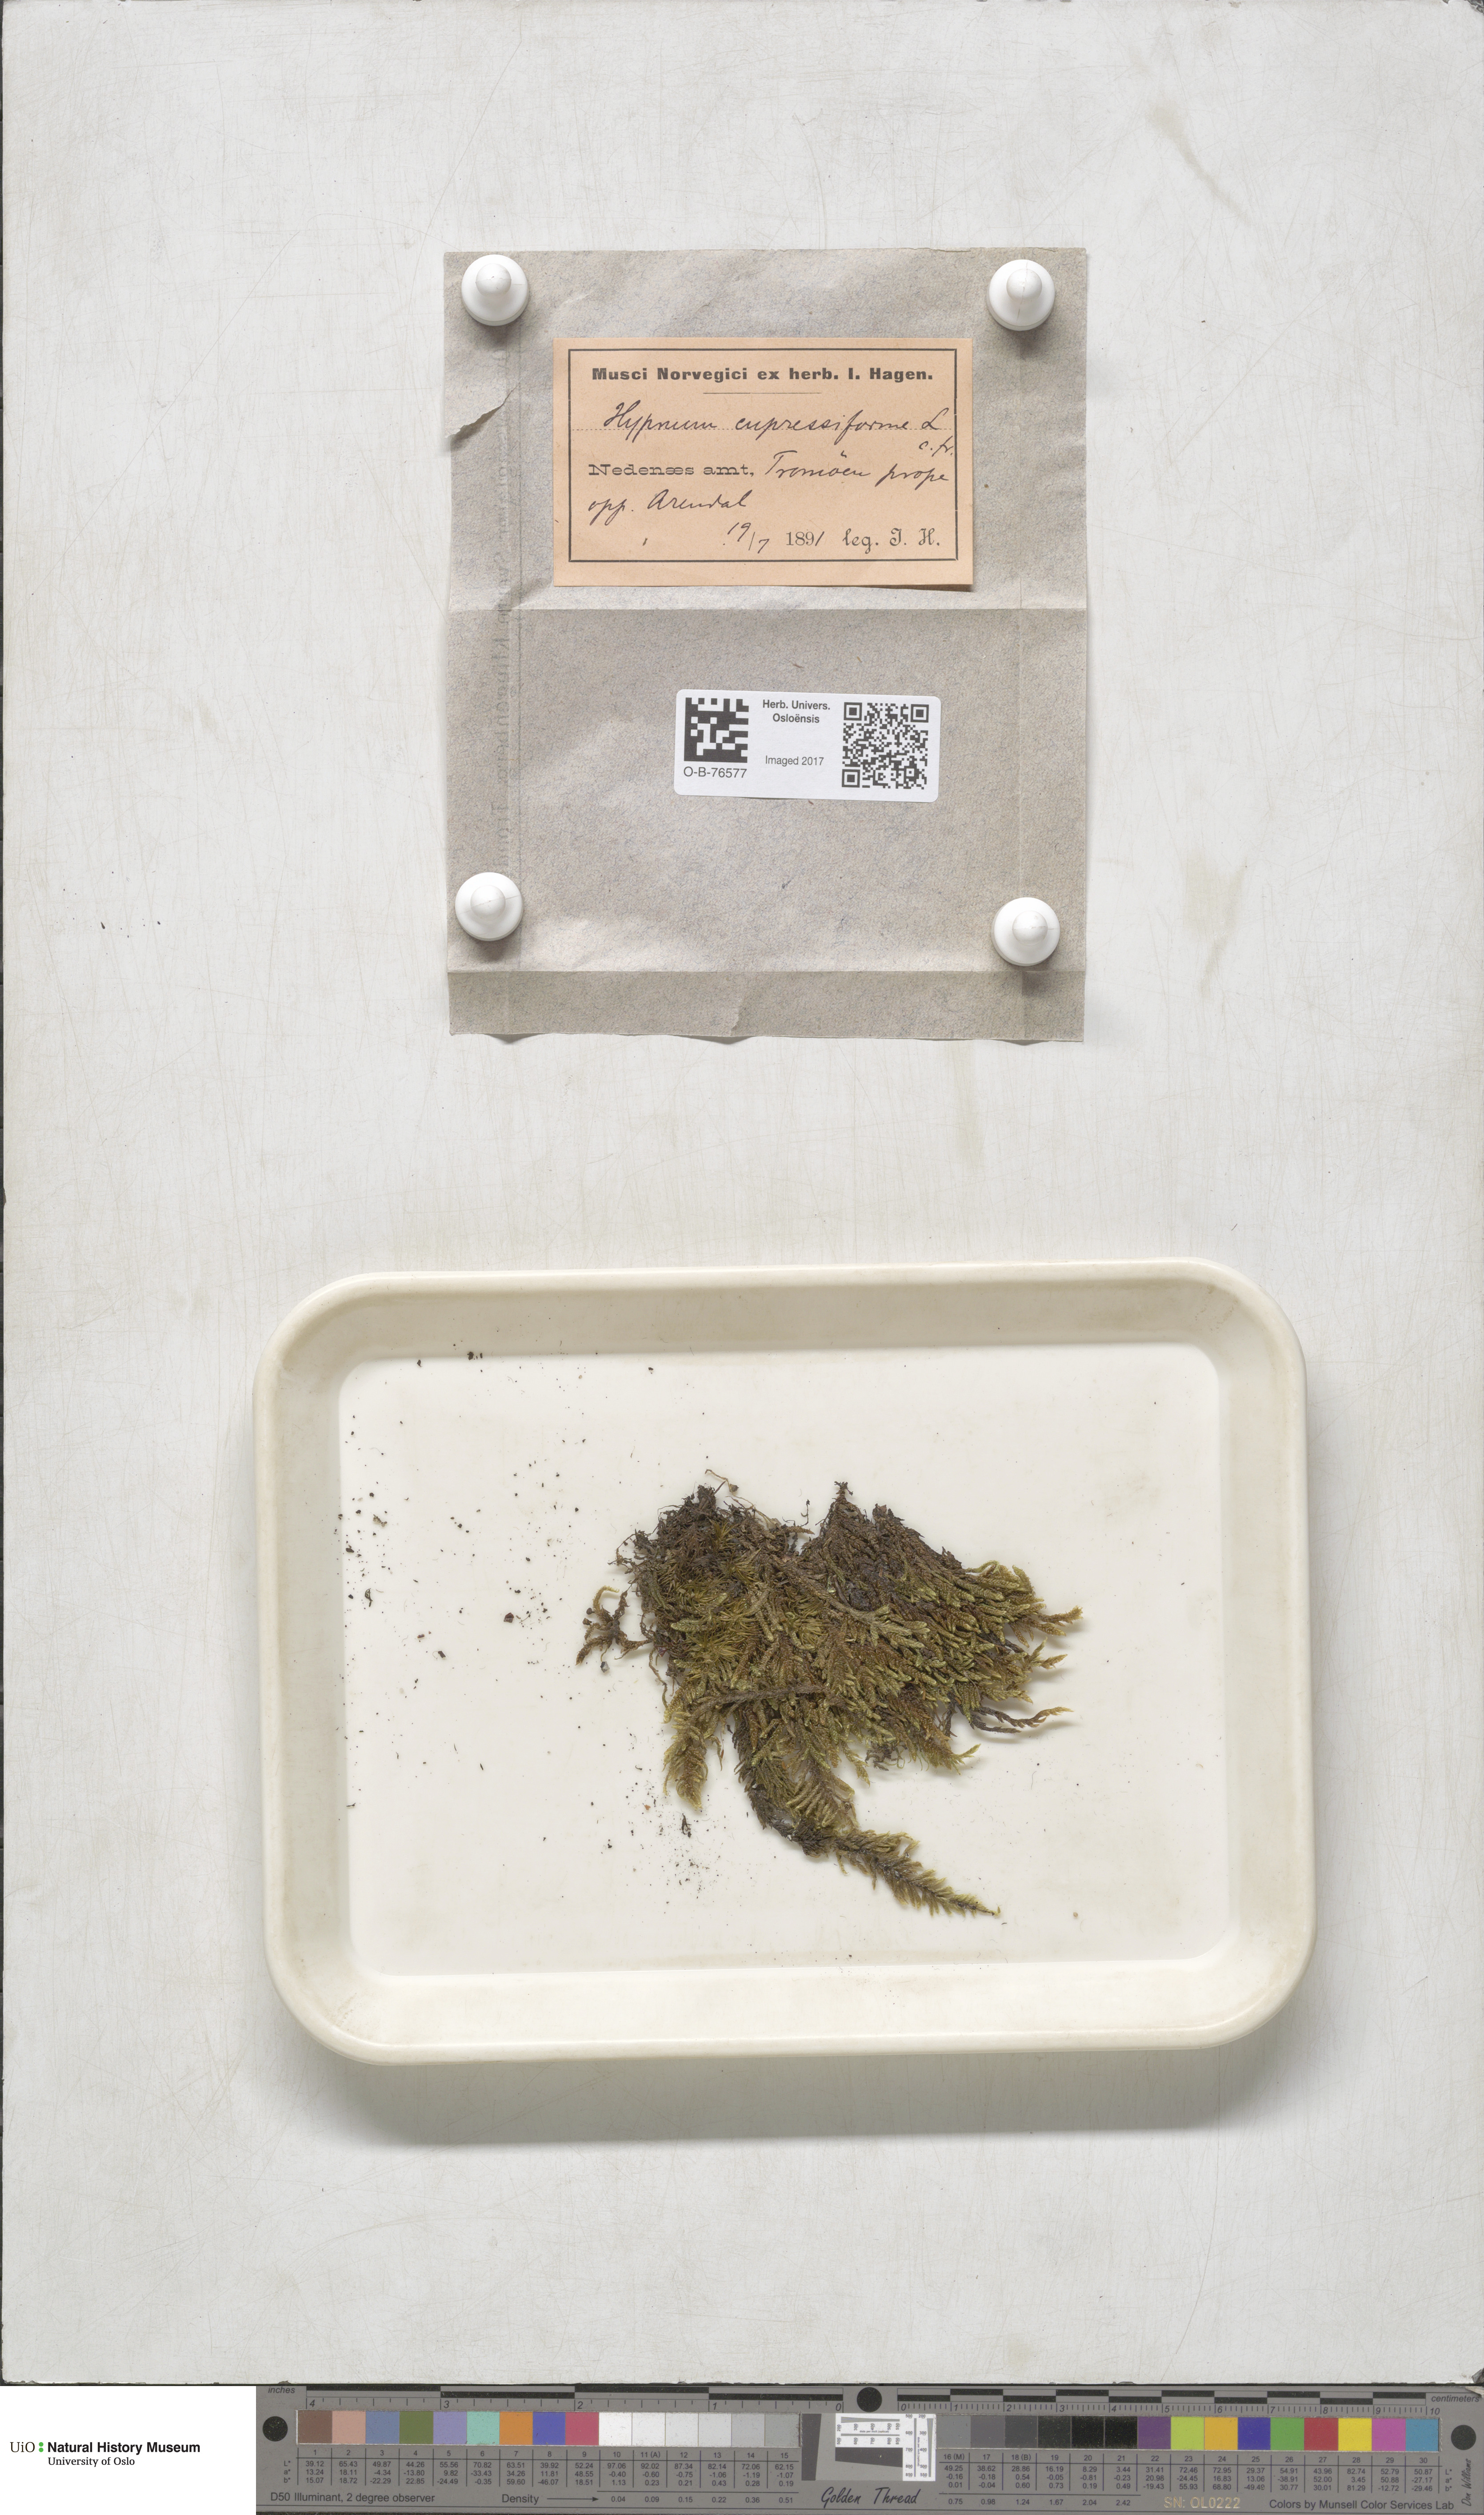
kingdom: Plantae
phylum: Bryophyta
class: Bryopsida
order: Hypnales
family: Hypnaceae
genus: Hypnum
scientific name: Hypnum cupressiforme
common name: Cypress-leaved plait-moss
